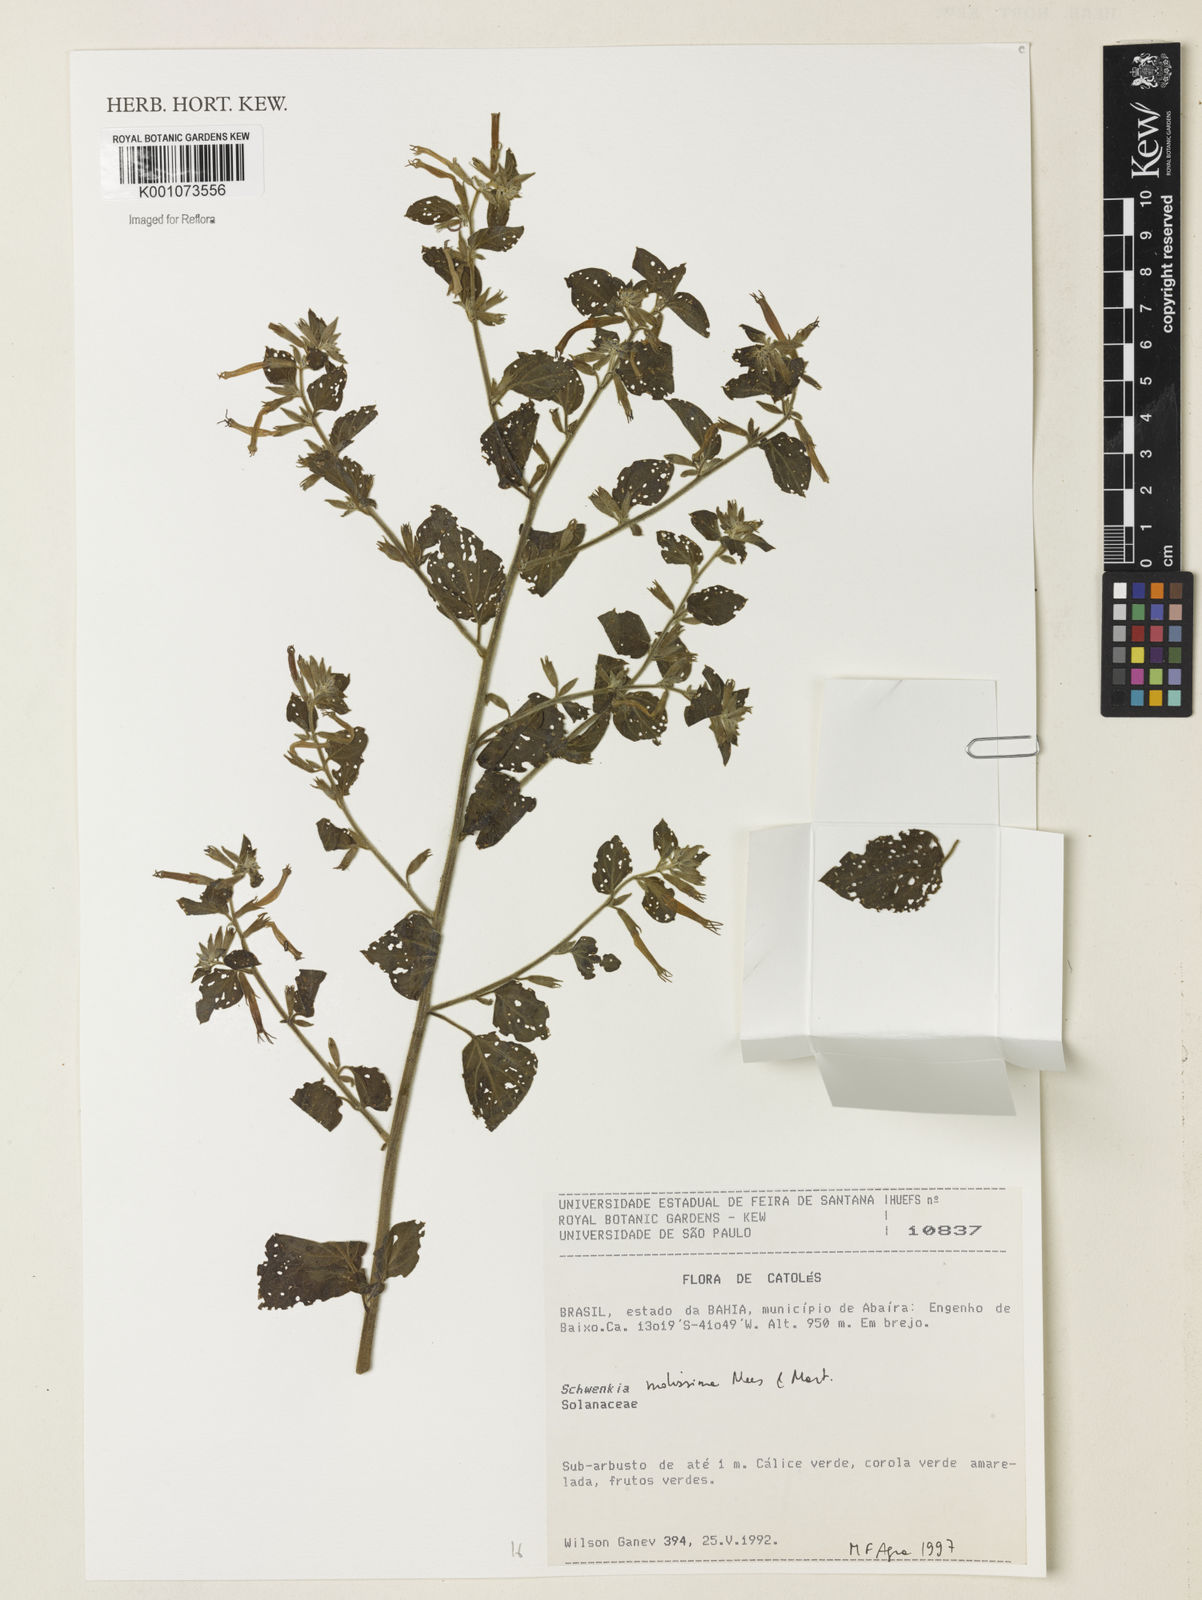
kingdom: Plantae
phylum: Tracheophyta
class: Magnoliopsida
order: Solanales
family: Solanaceae
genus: Schwenckia
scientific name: Schwenckia mollissima
